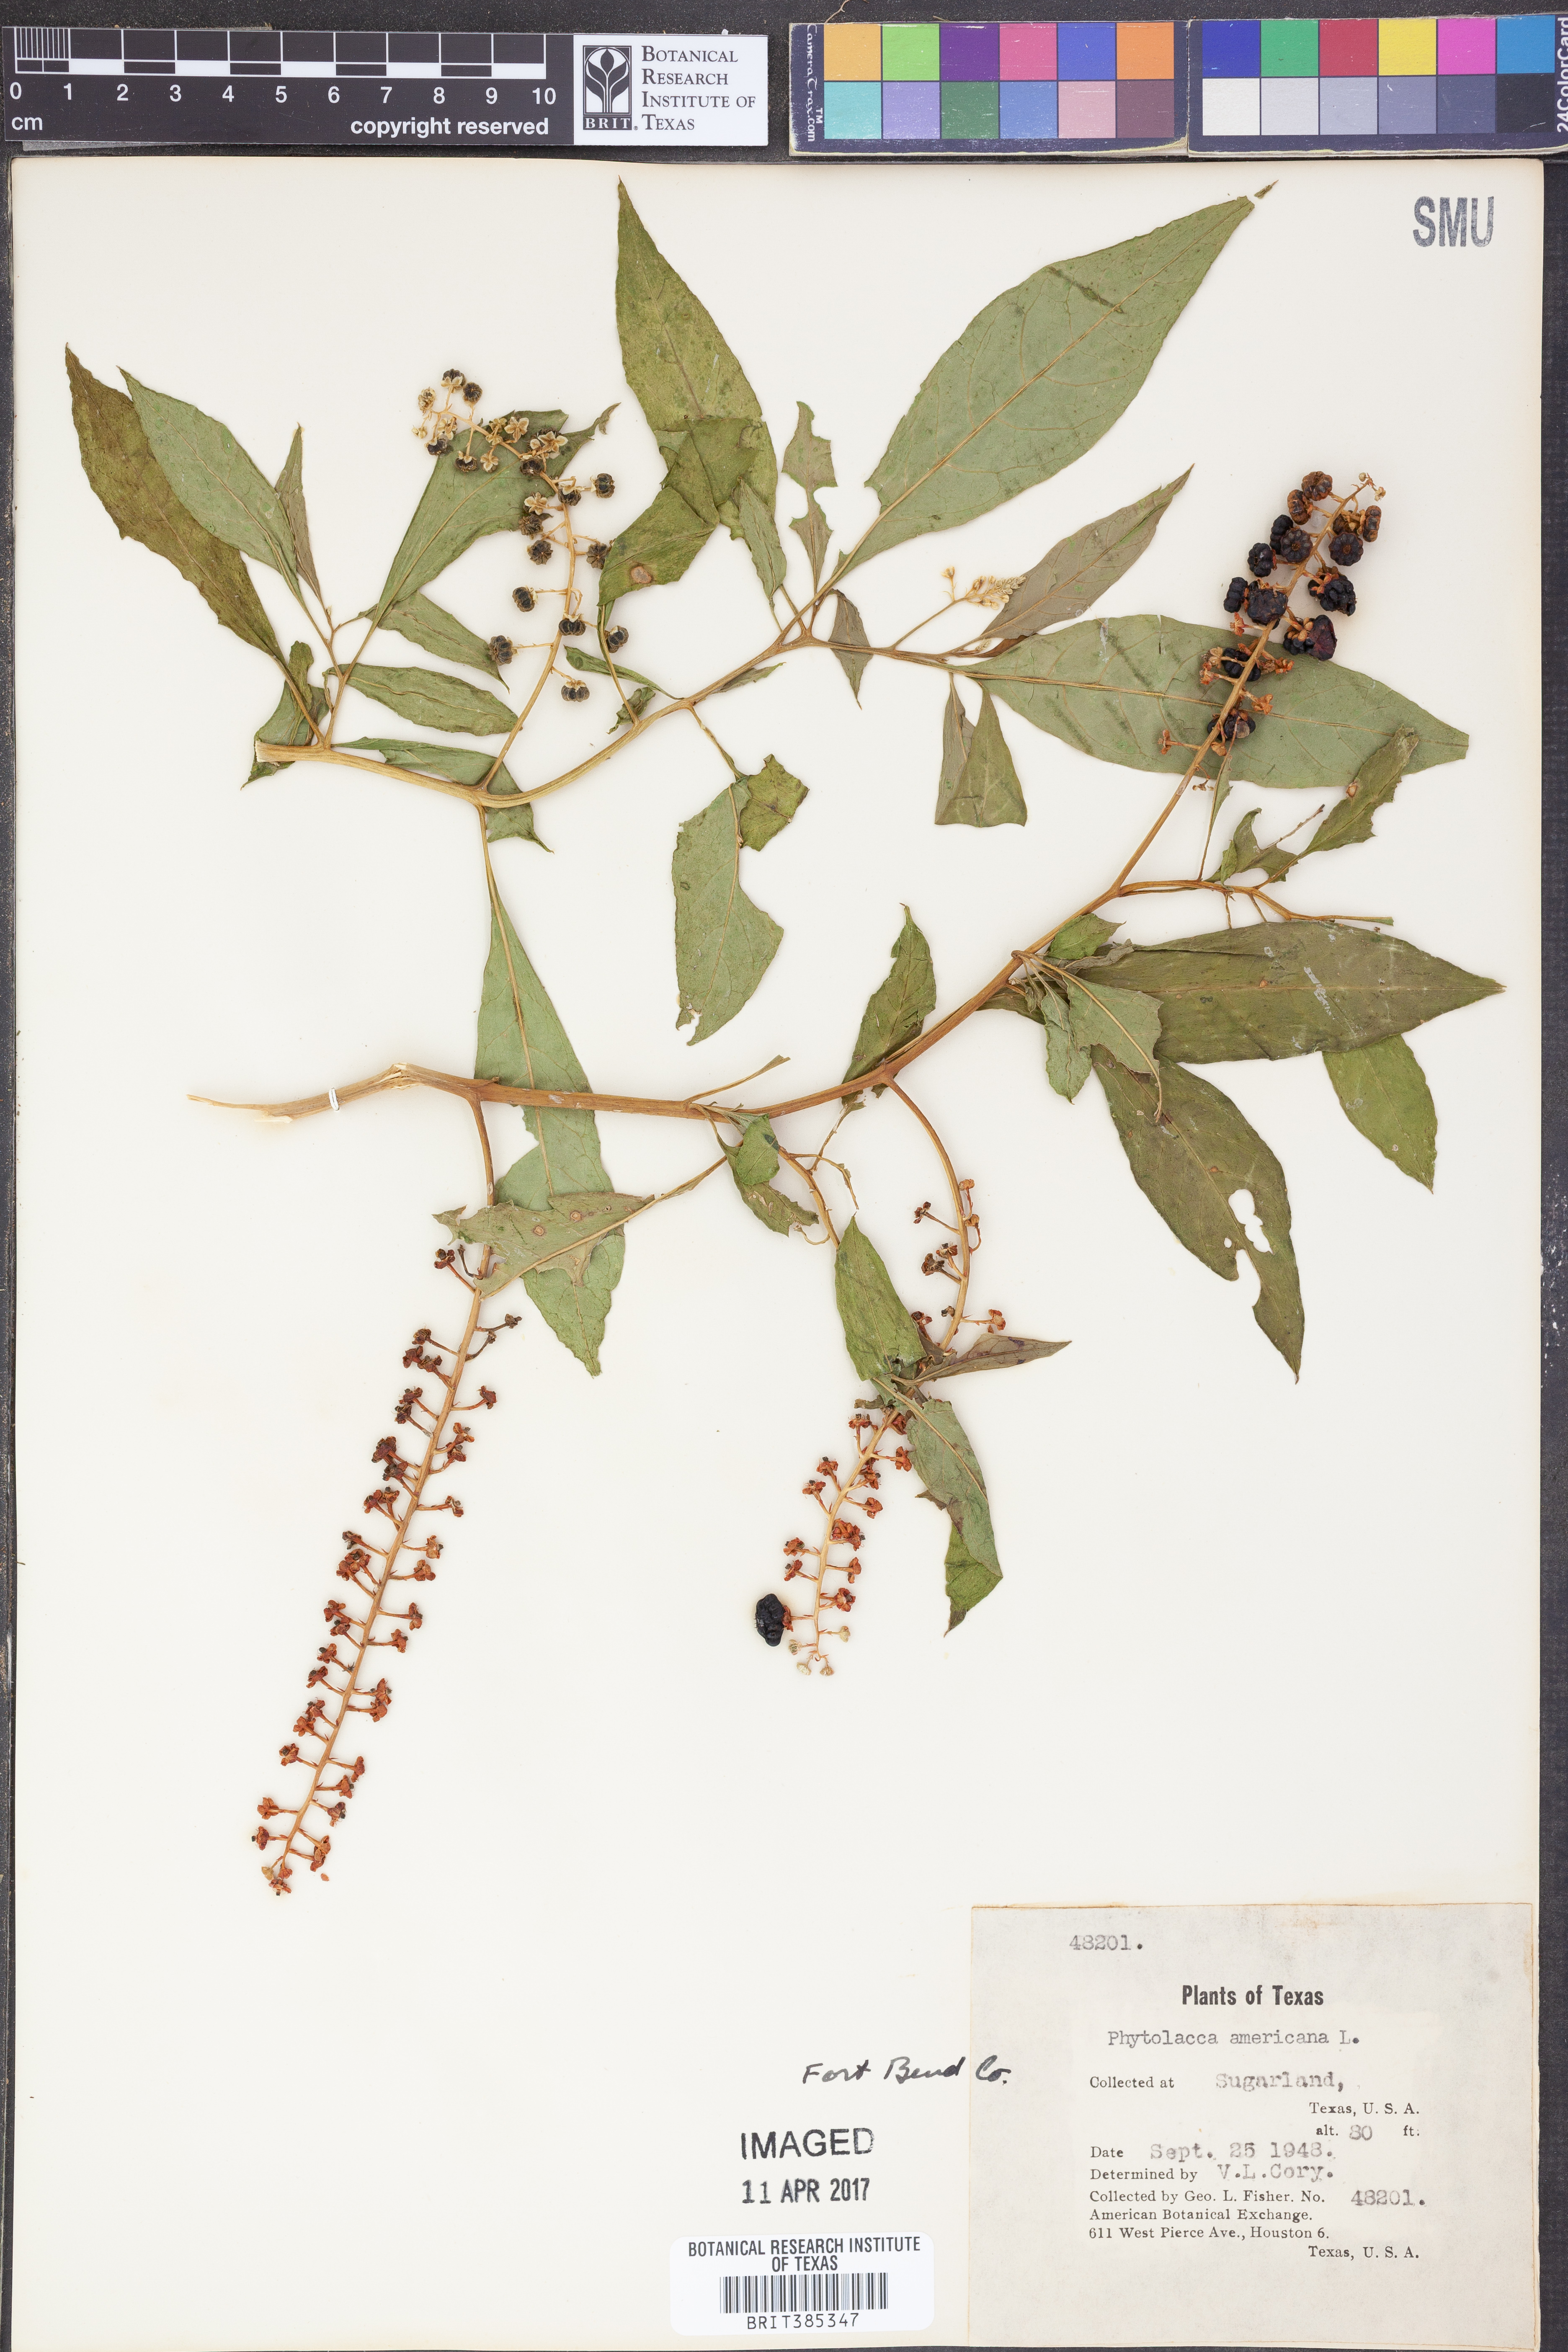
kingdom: Plantae
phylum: Tracheophyta
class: Magnoliopsida
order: Caryophyllales
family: Phytolaccaceae
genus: Phytolacca
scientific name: Phytolacca americana
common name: American pokeweed
